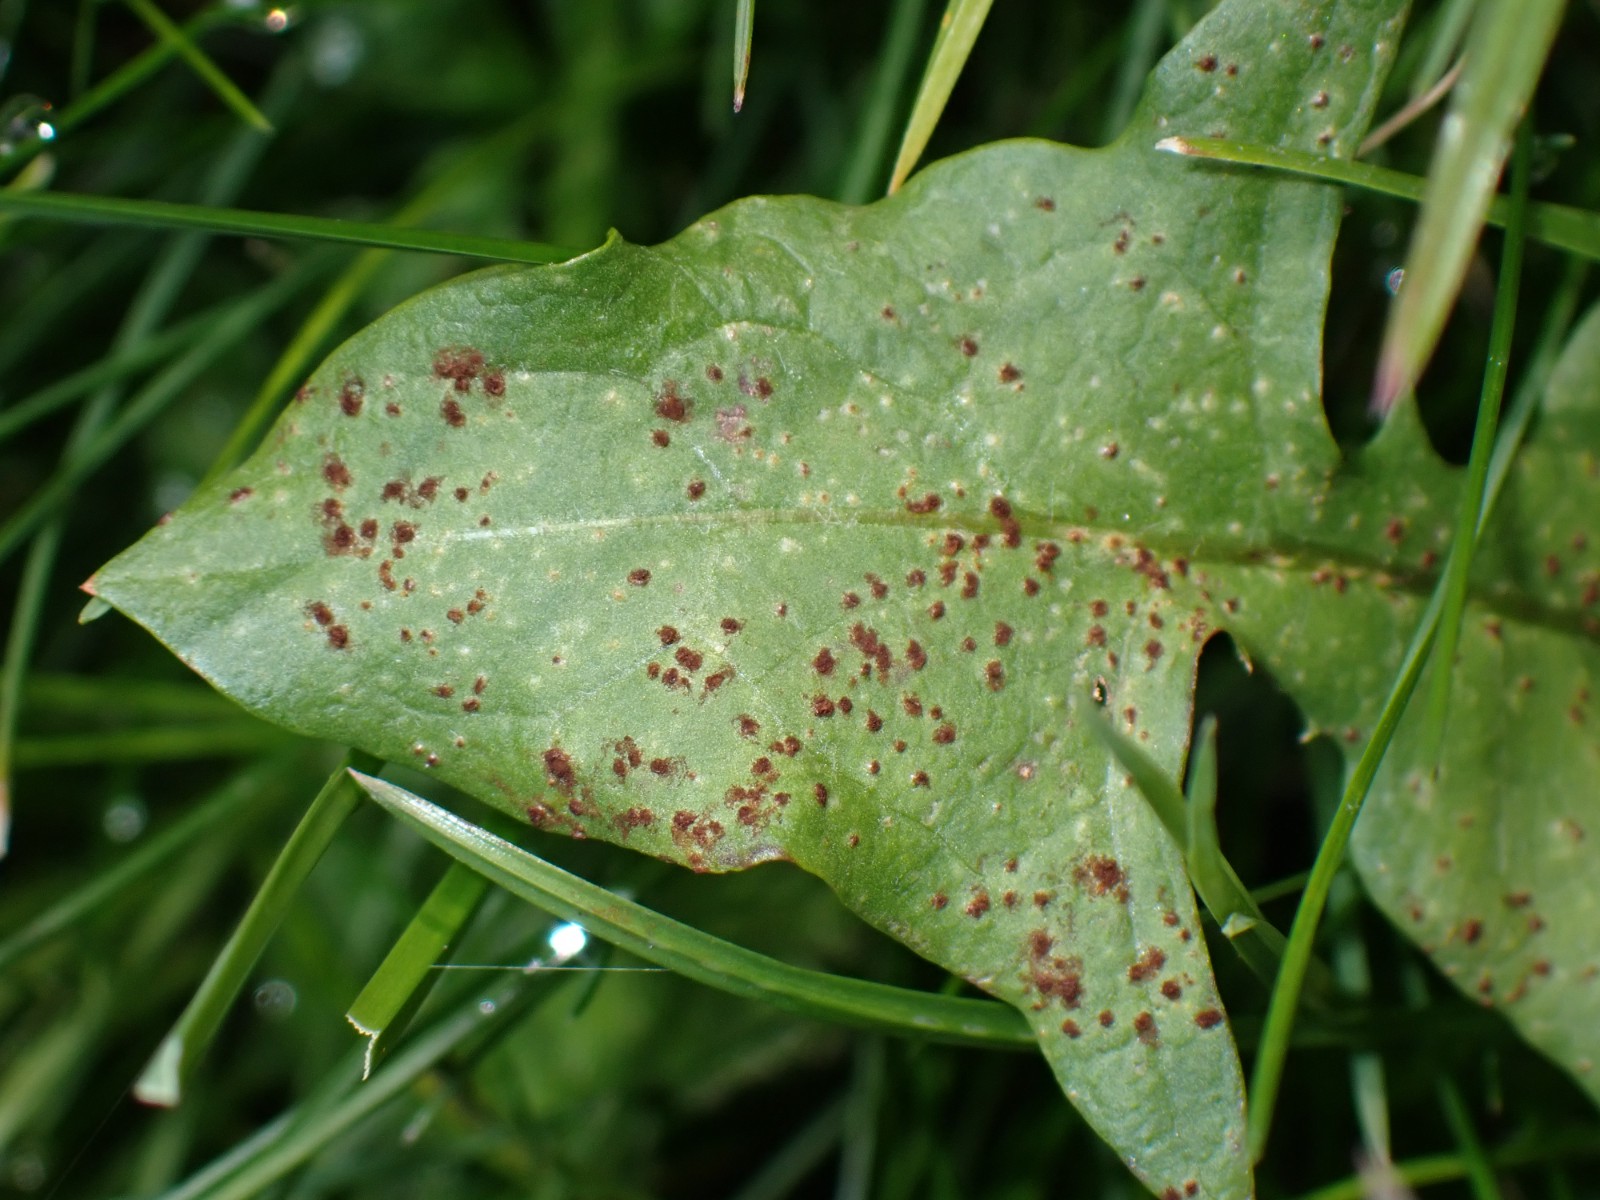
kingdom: Fungi
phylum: Basidiomycota
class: Pucciniomycetes
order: Pucciniales
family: Pucciniaceae
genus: Puccinia
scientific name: Puccinia
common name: tvecellerust
